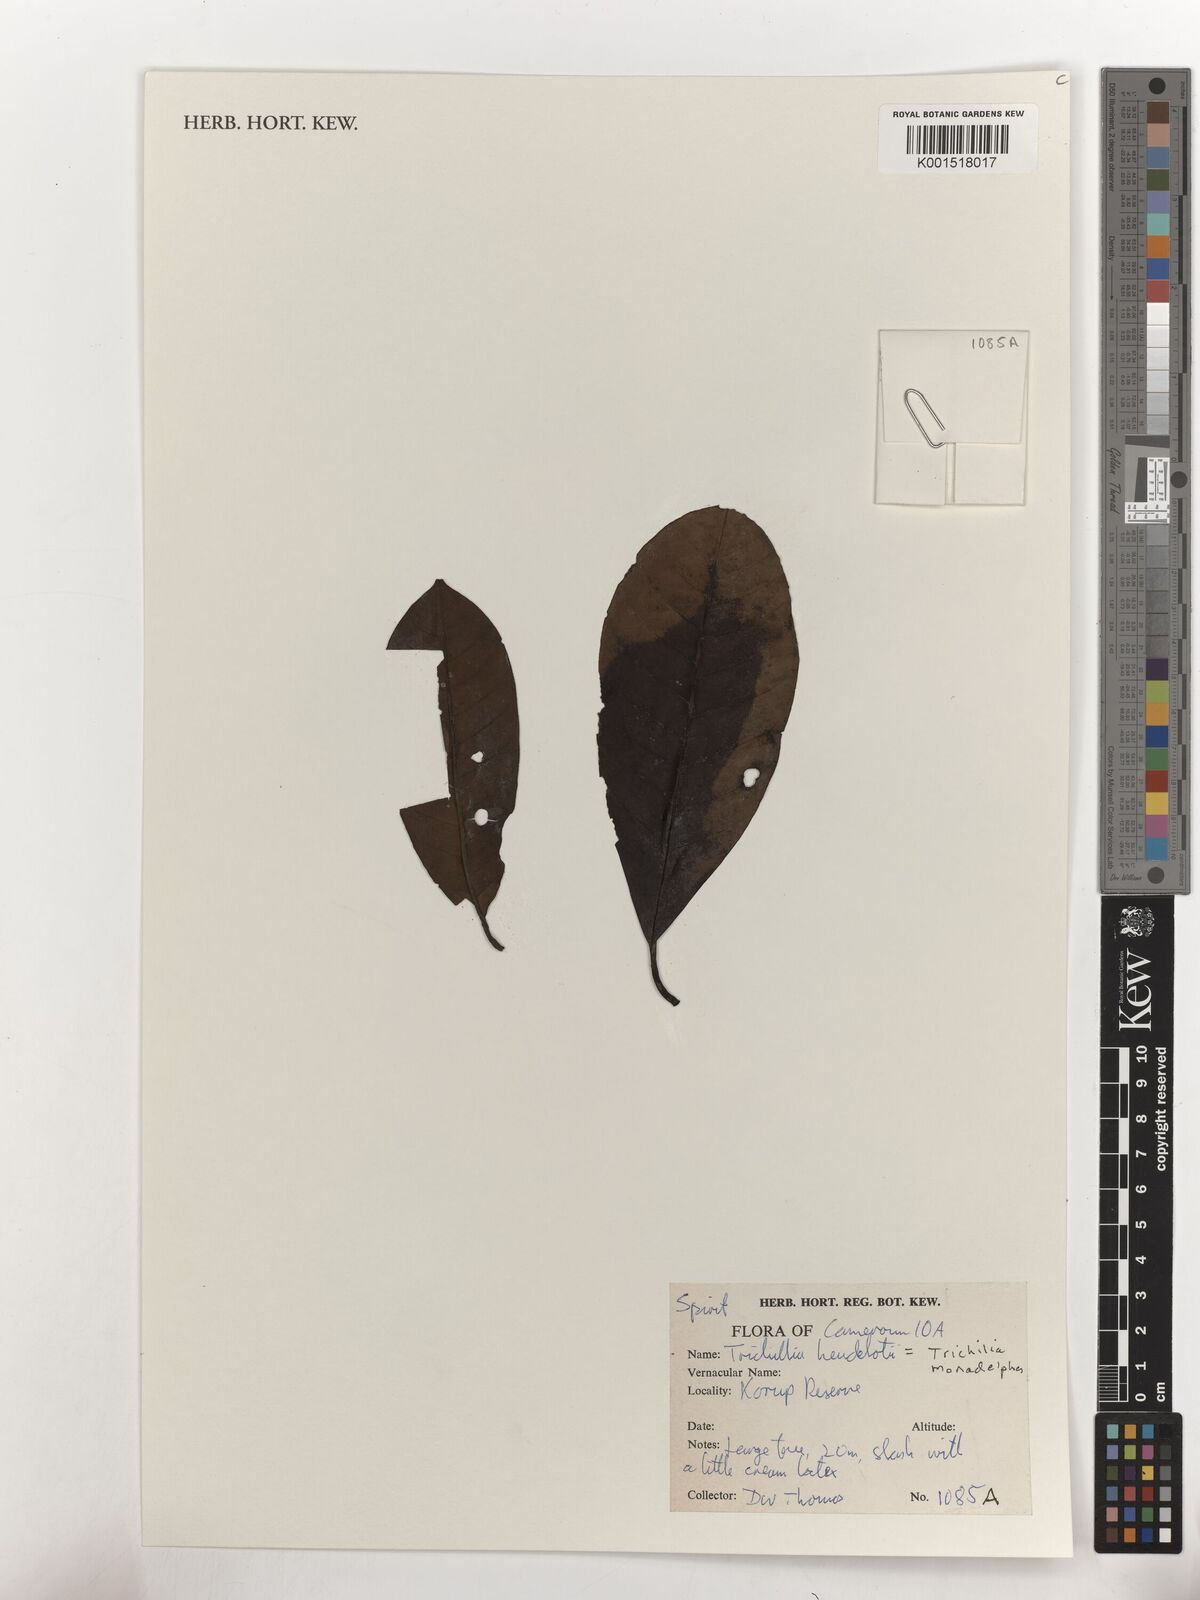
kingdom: Plantae
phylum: Tracheophyta
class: Magnoliopsida
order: Sapindales
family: Meliaceae
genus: Trichilia
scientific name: Trichilia monadelpha
